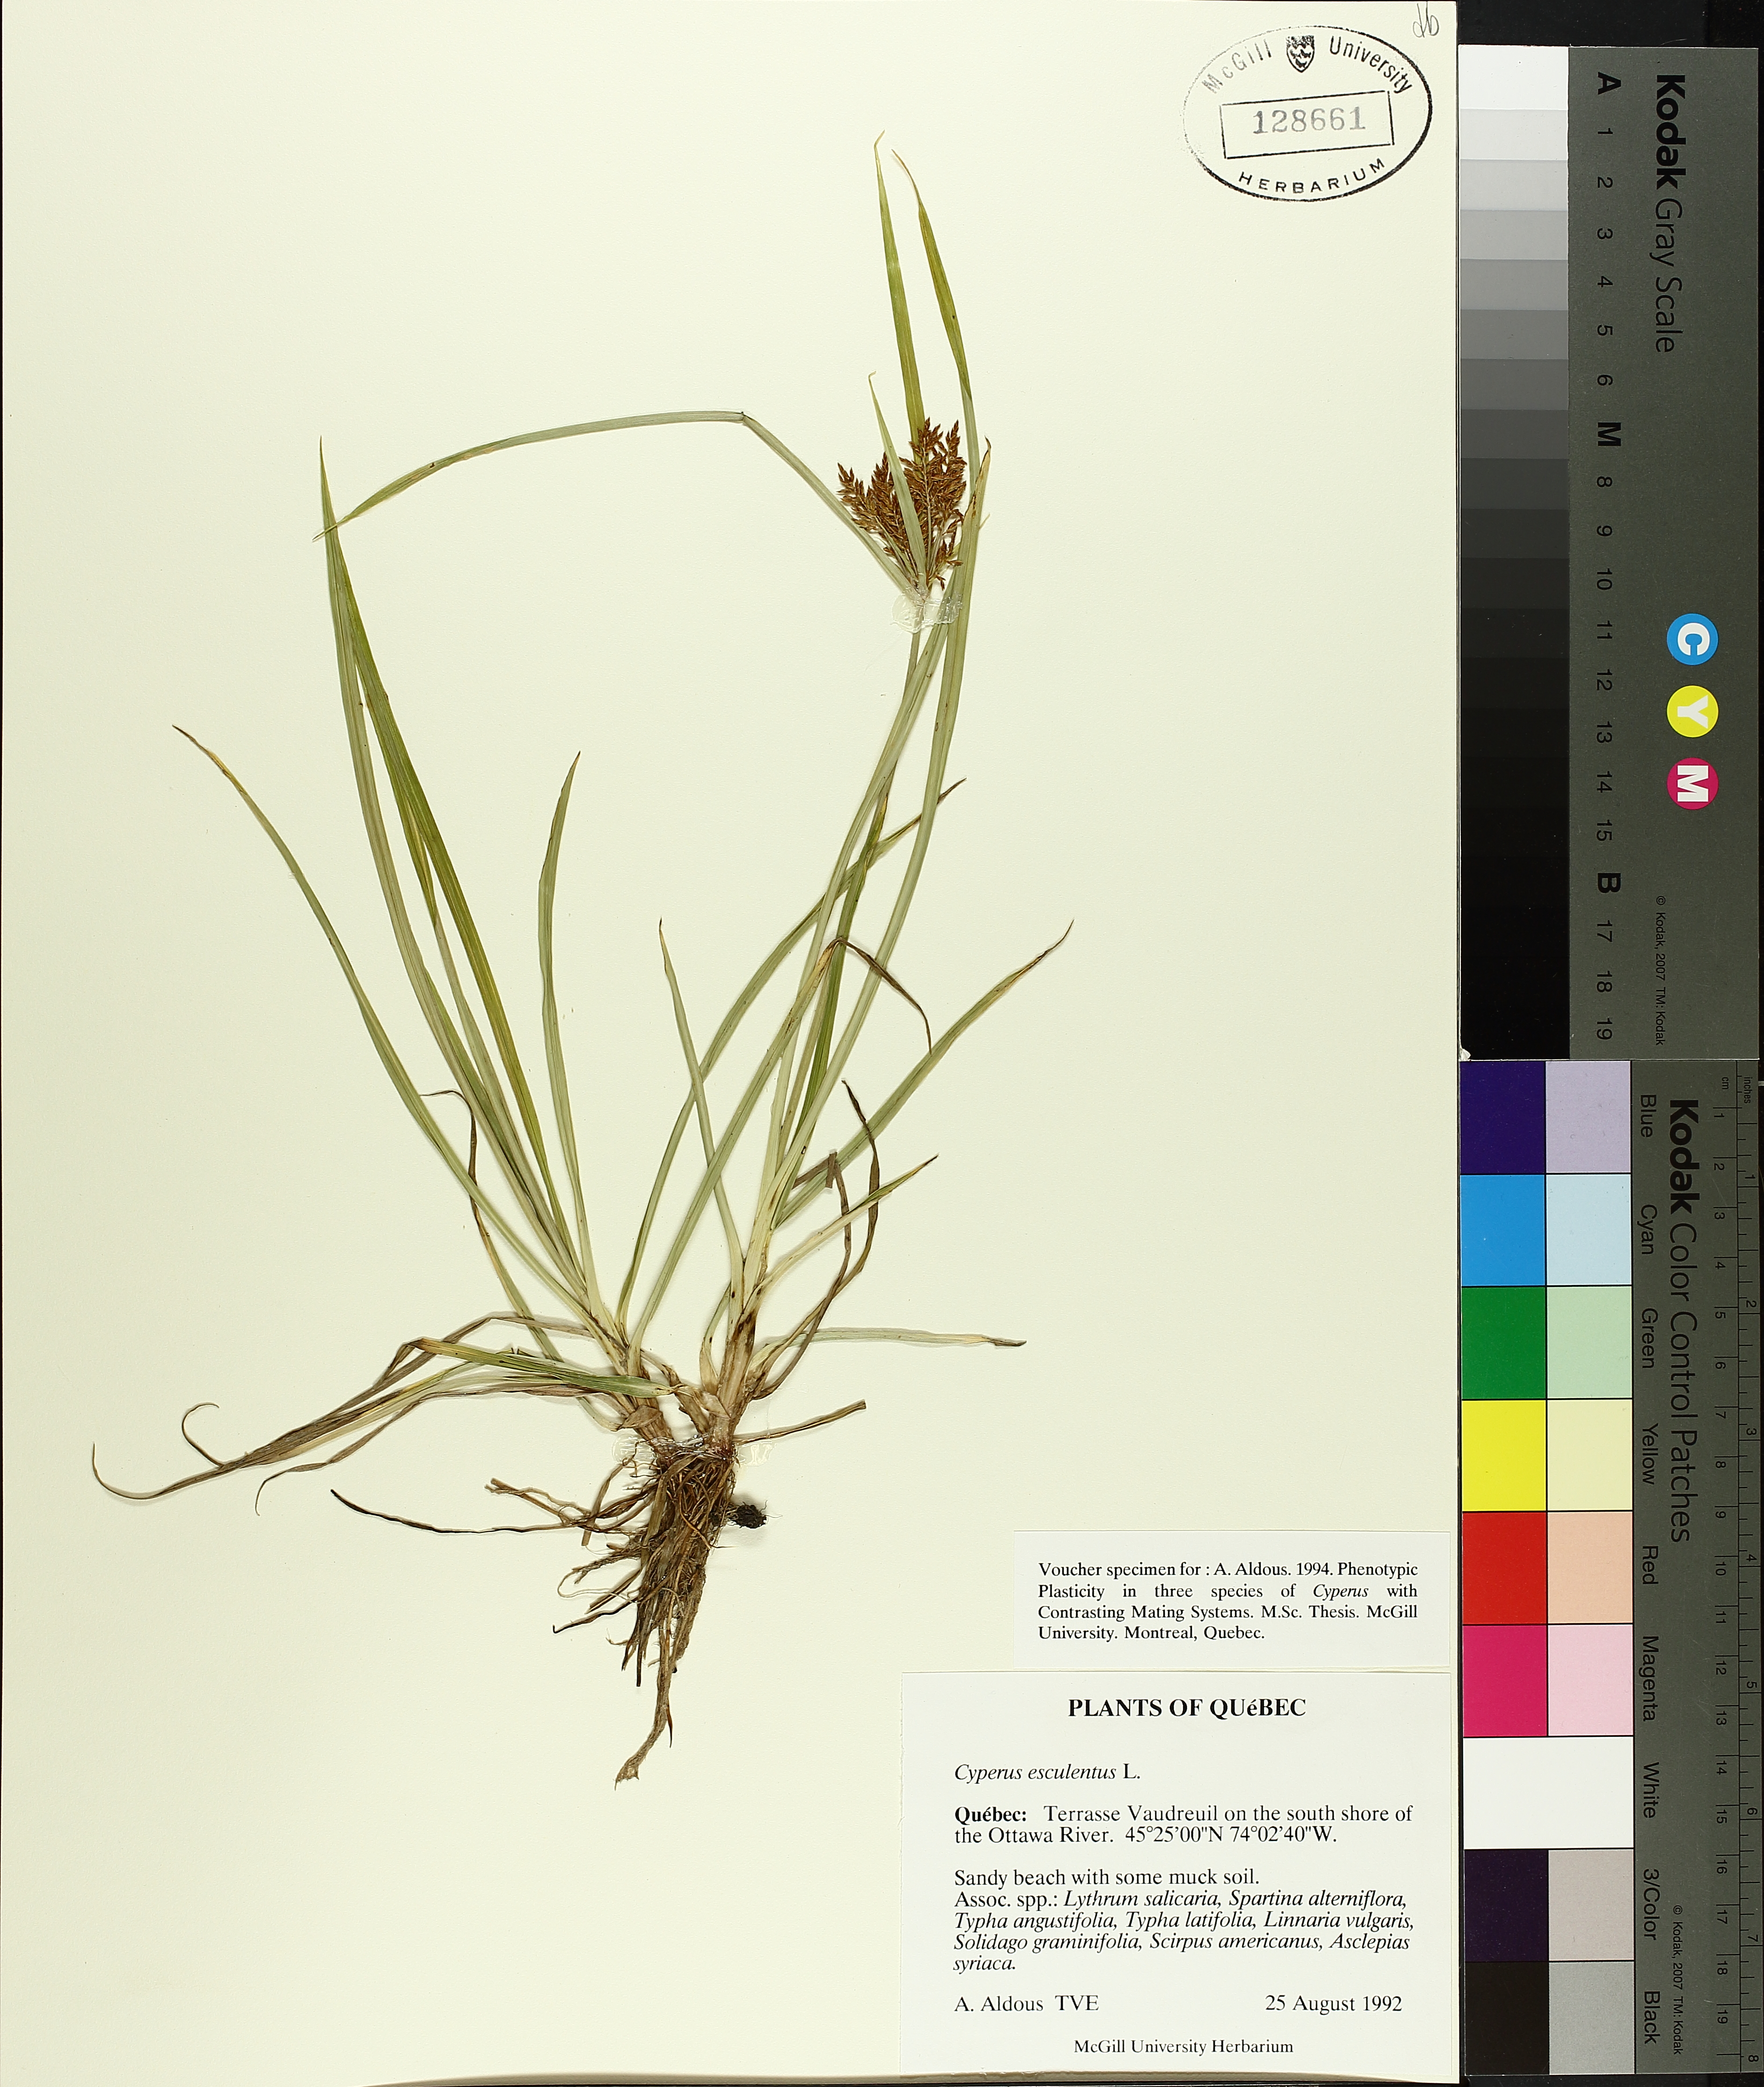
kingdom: Plantae
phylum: Tracheophyta
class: Liliopsida
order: Poales
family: Cyperaceae
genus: Cyperus
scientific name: Cyperus esculentus
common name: Yellow nutsedge
